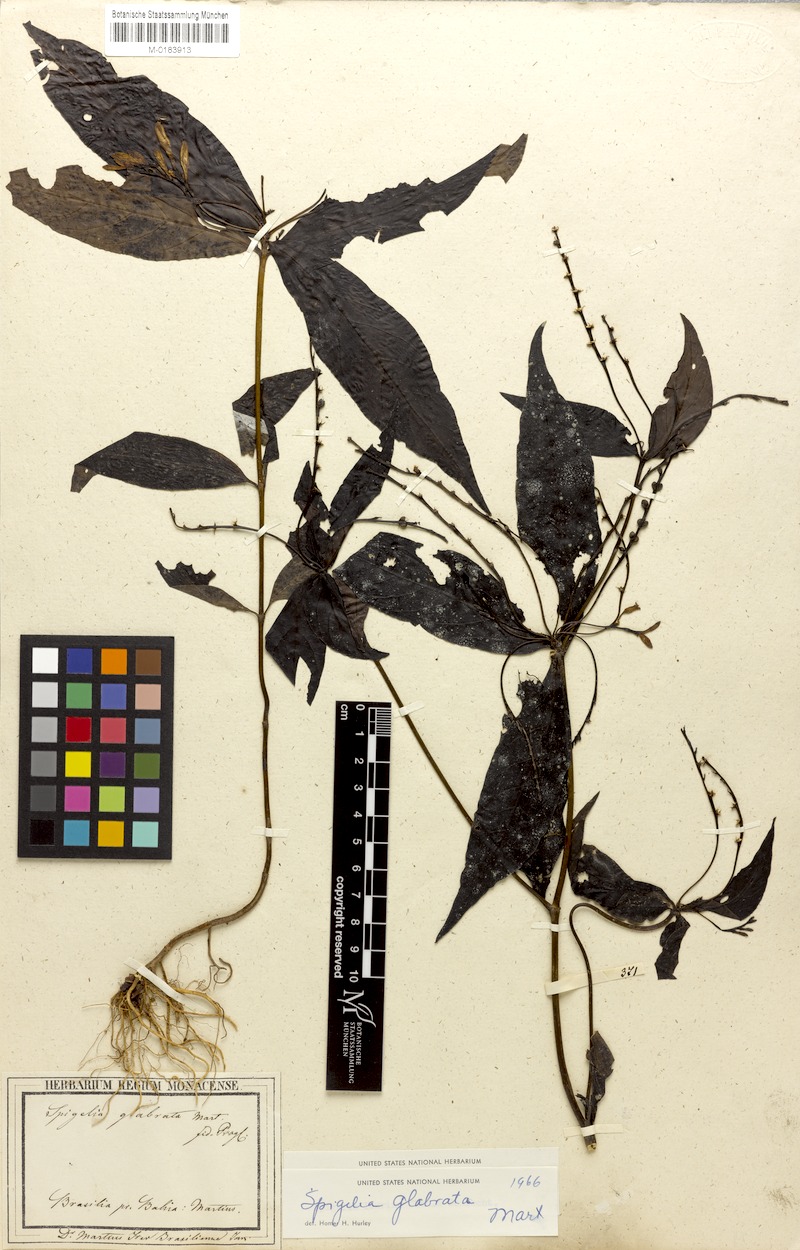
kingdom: Plantae
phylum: Tracheophyta
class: Magnoliopsida
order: Gentianales
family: Loganiaceae
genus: Spigelia
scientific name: Spigelia glabrata
